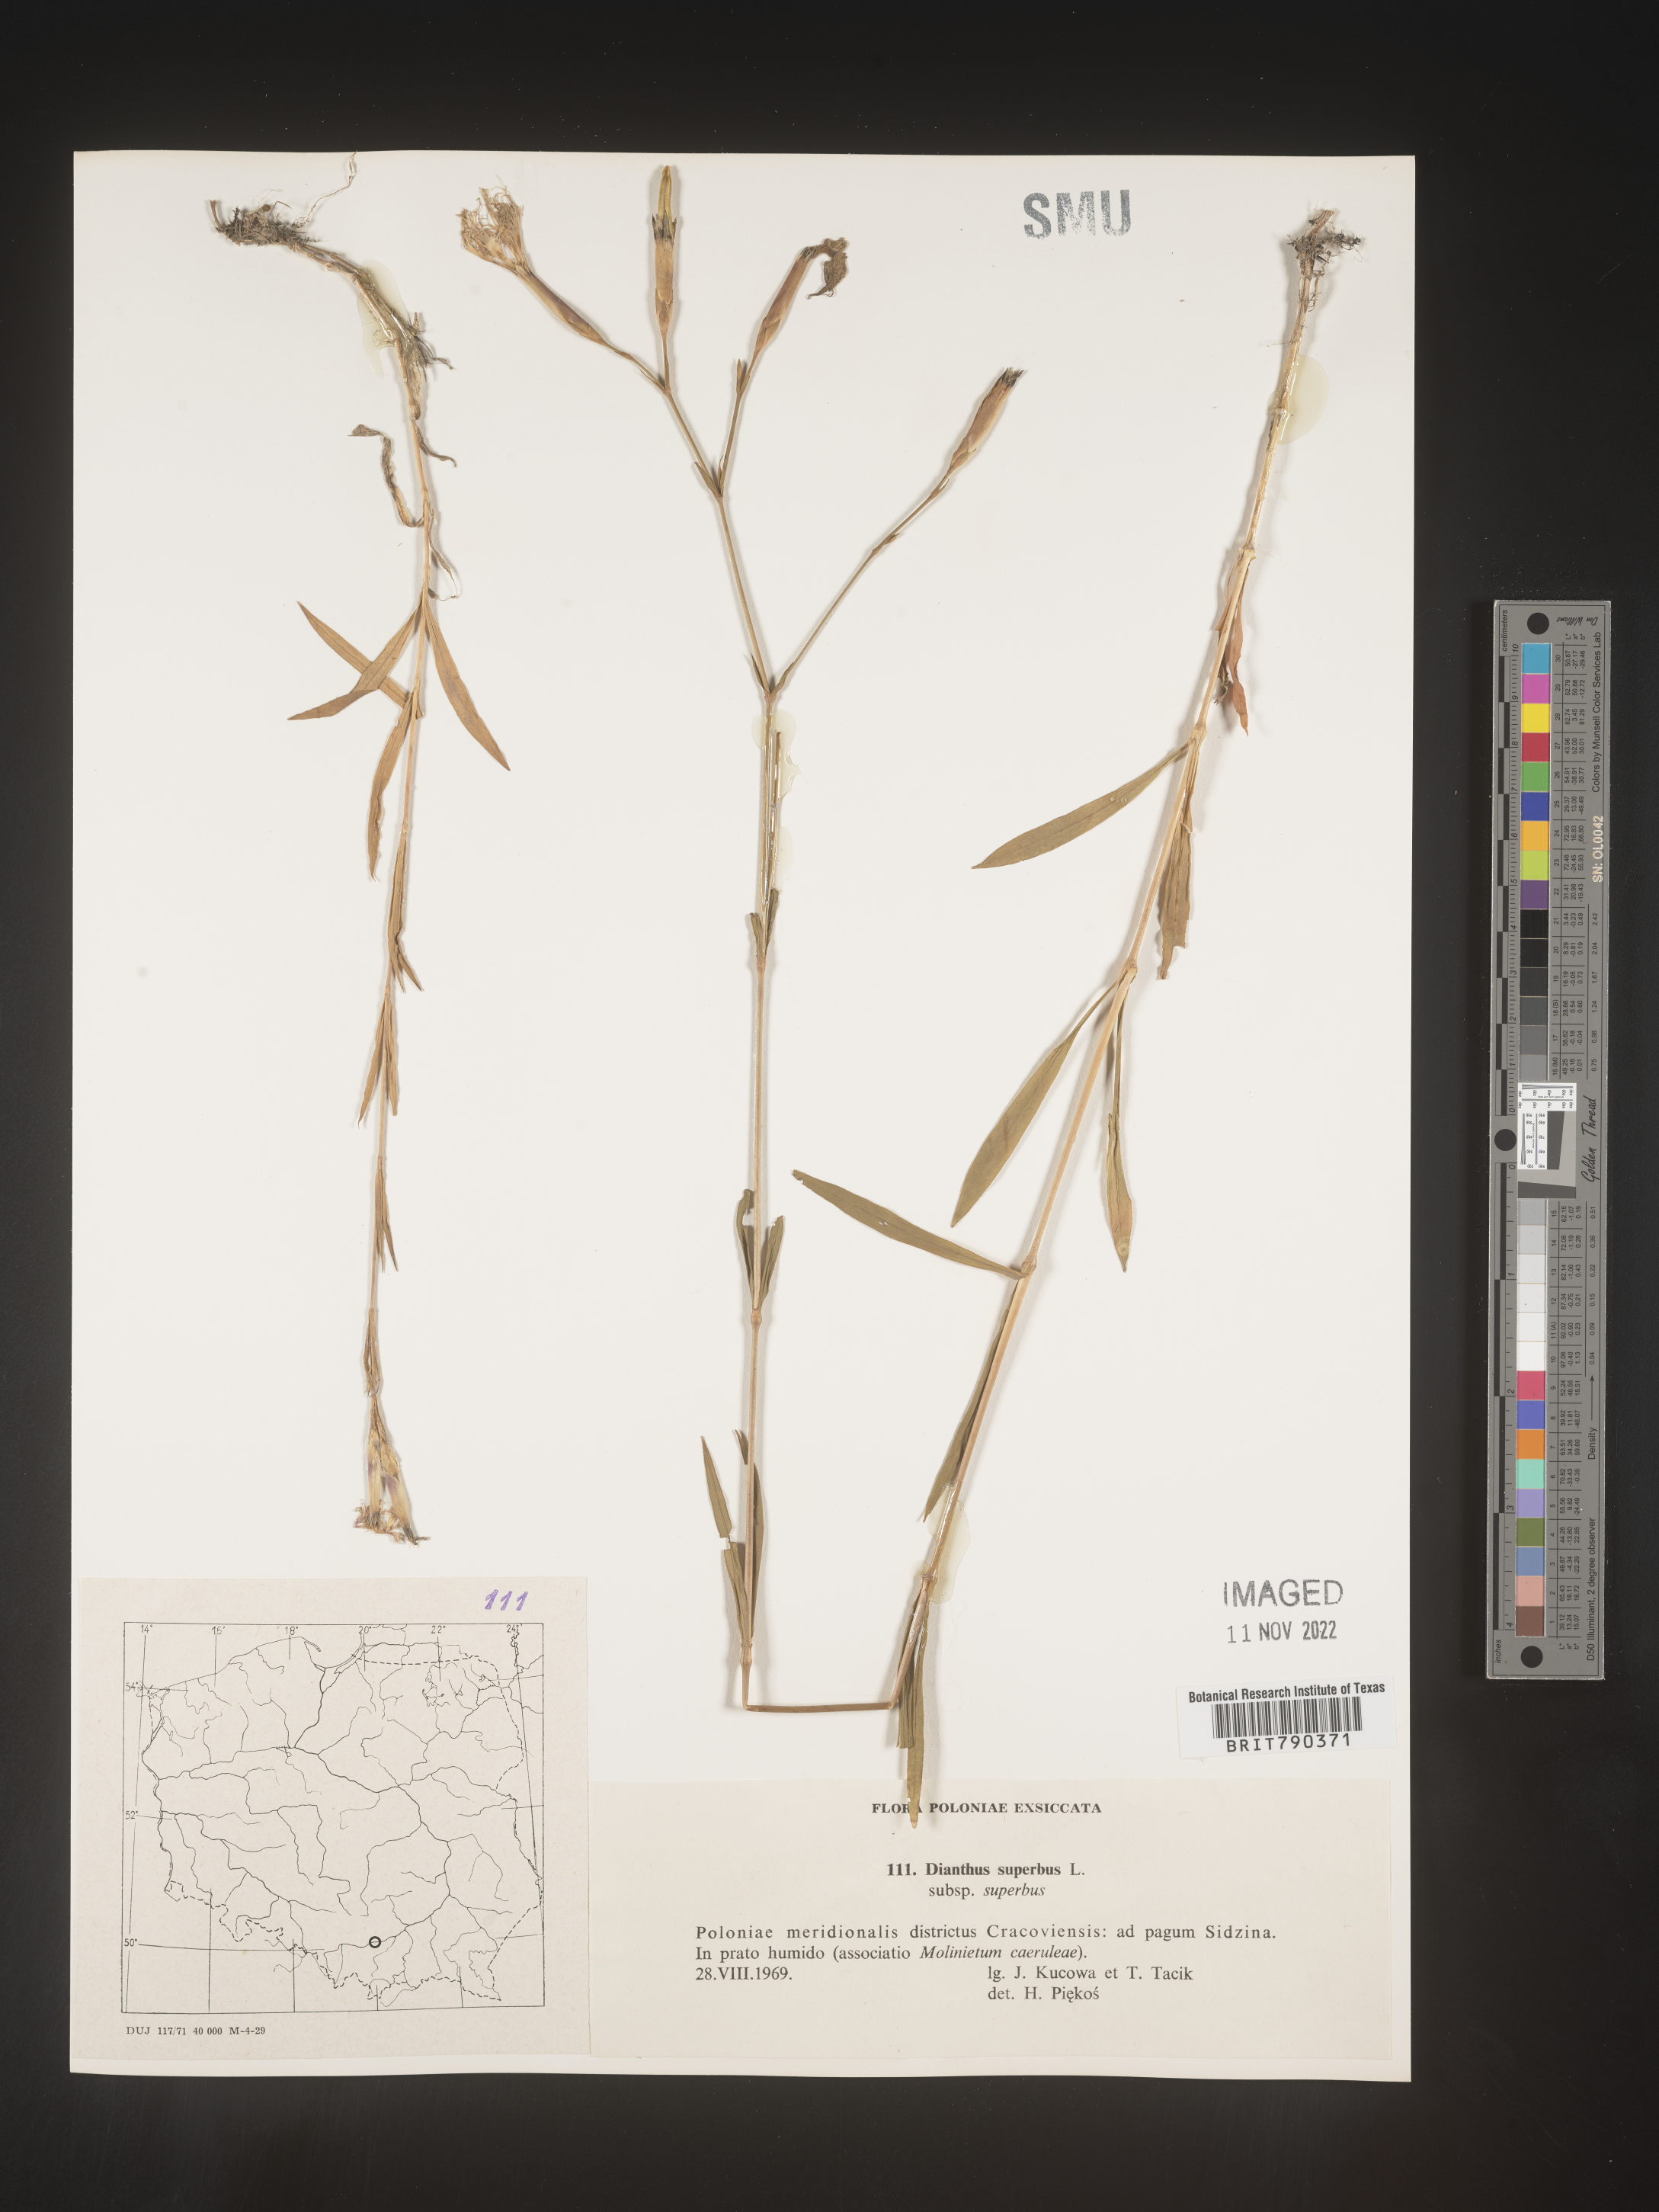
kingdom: Plantae
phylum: Tracheophyta
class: Magnoliopsida
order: Caryophyllales
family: Caryophyllaceae
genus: Dianthus
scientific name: Dianthus superbus
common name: Fringed pink
